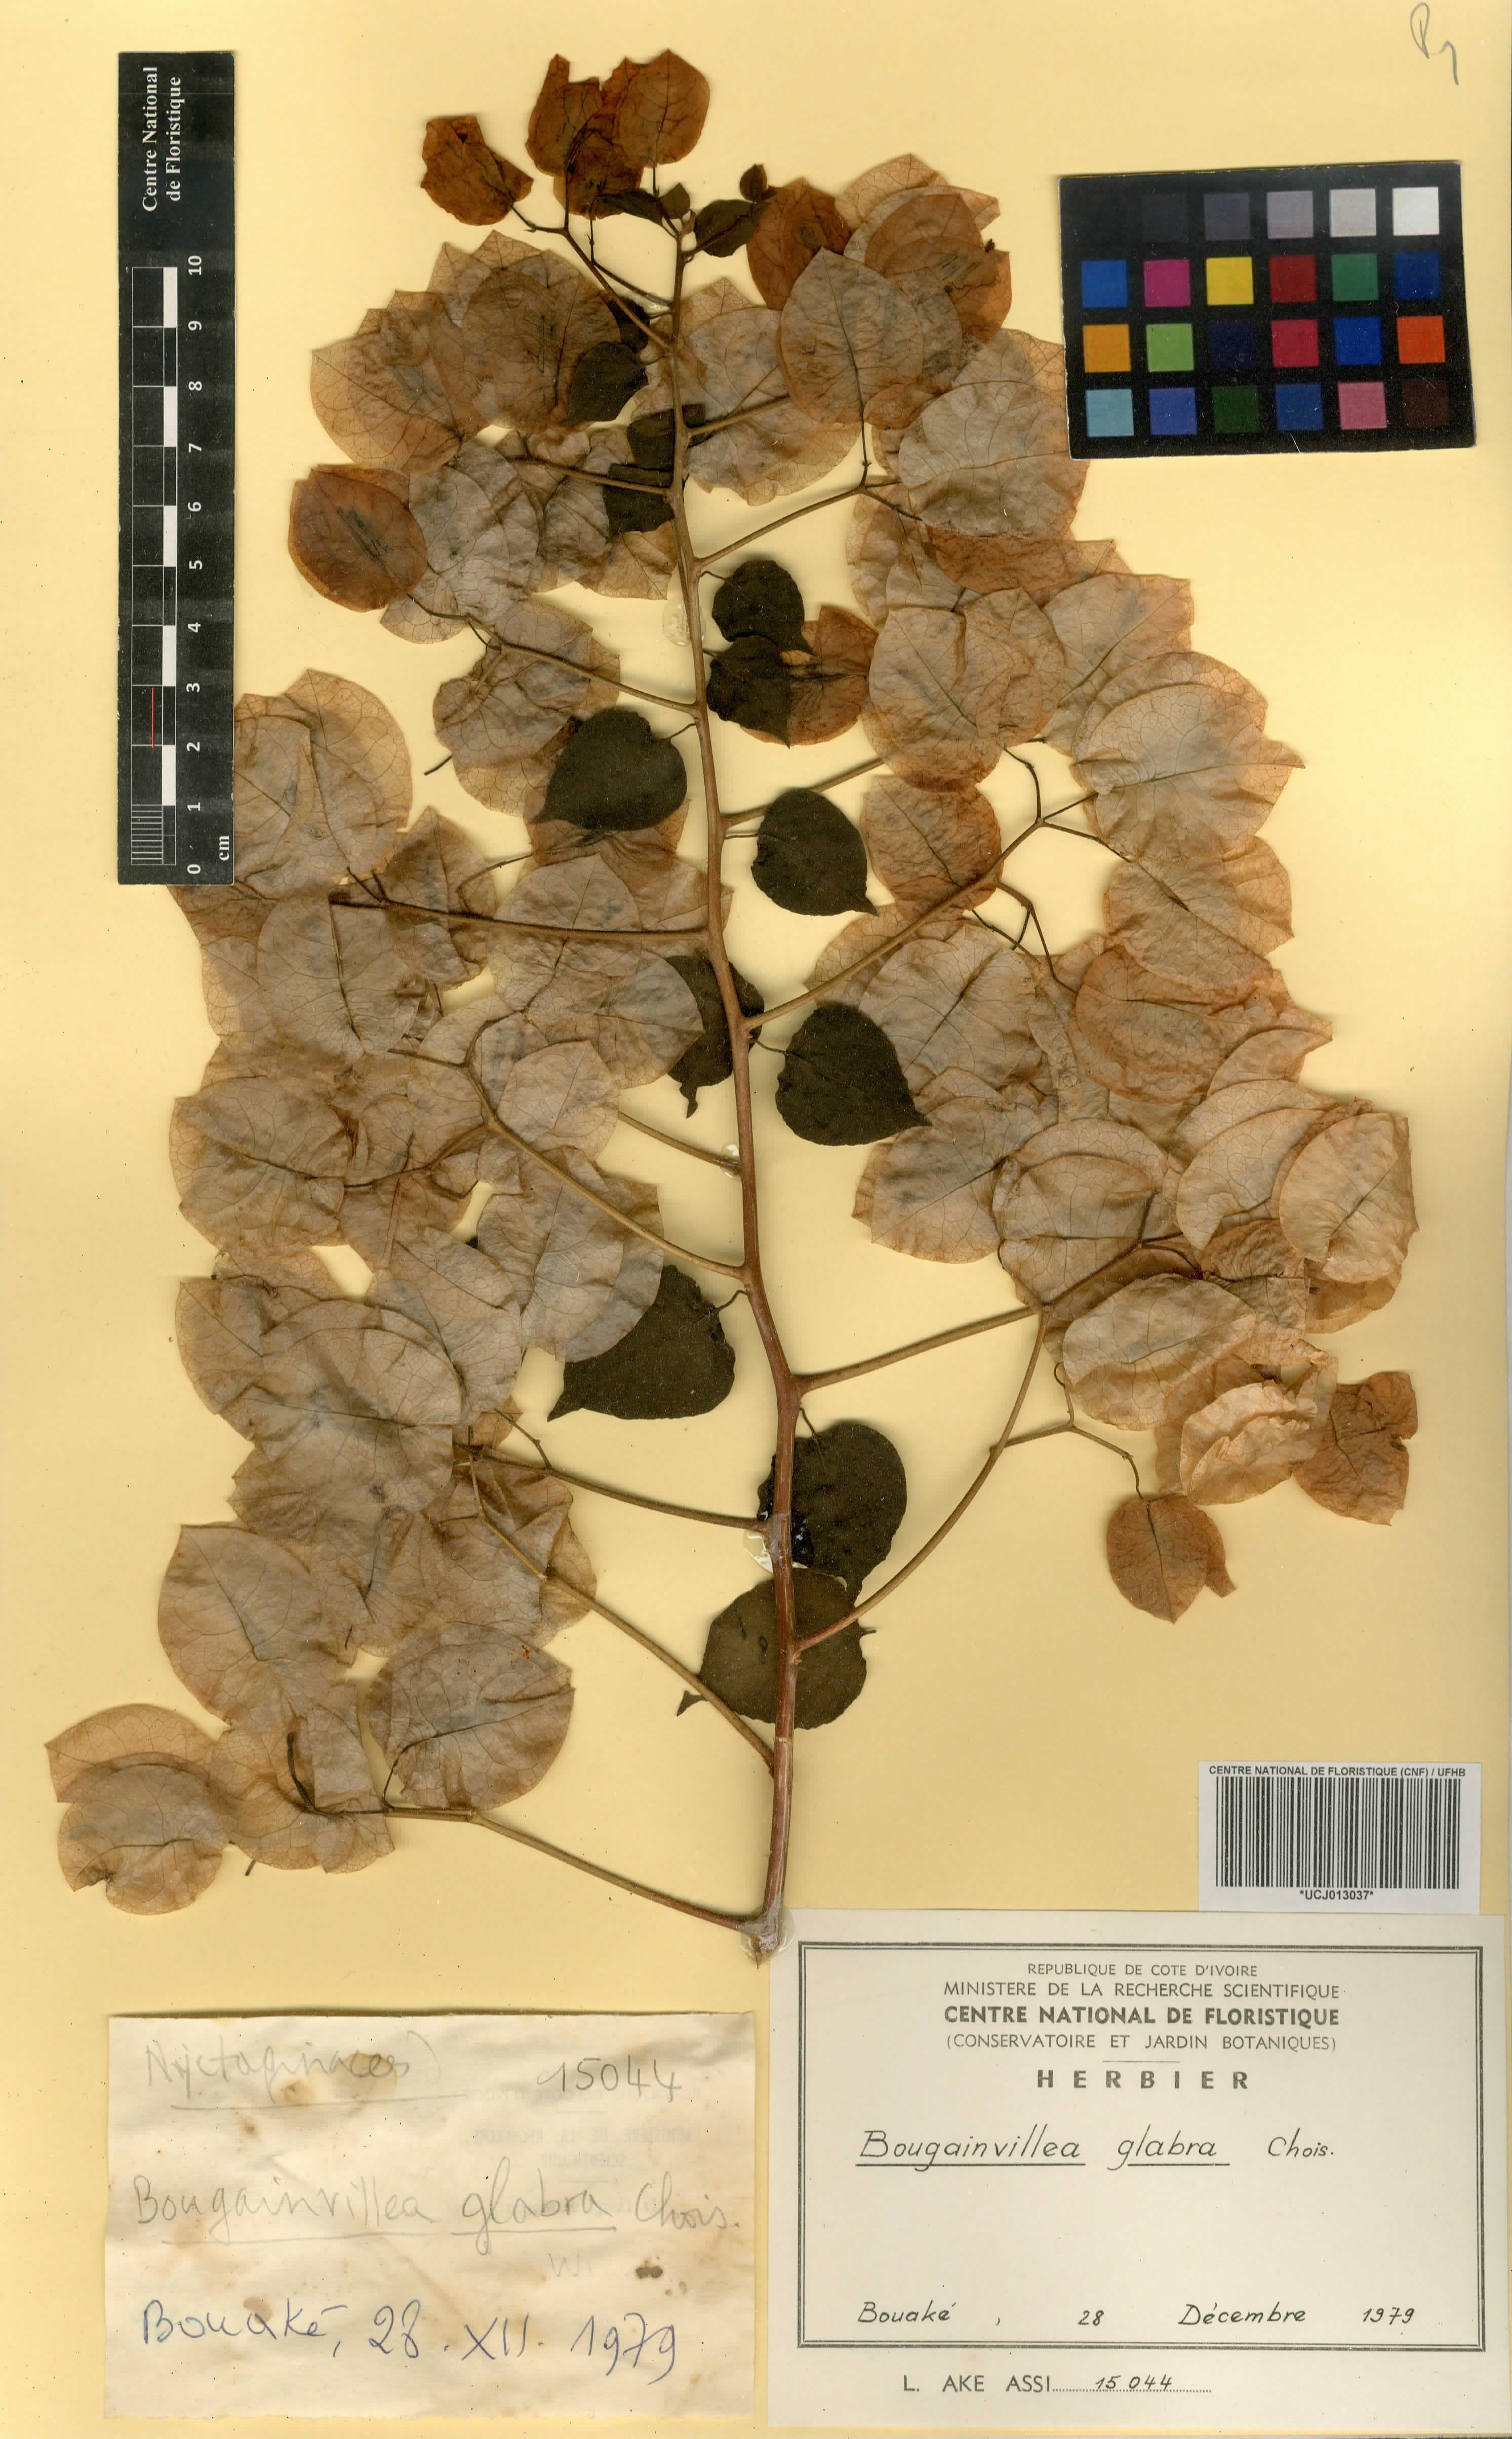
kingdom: Plantae
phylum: Tracheophyta
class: Magnoliopsida
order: Caryophyllales
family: Nyctaginaceae
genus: Bougainvillea
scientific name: Bougainvillea glabra
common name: Paperflower
